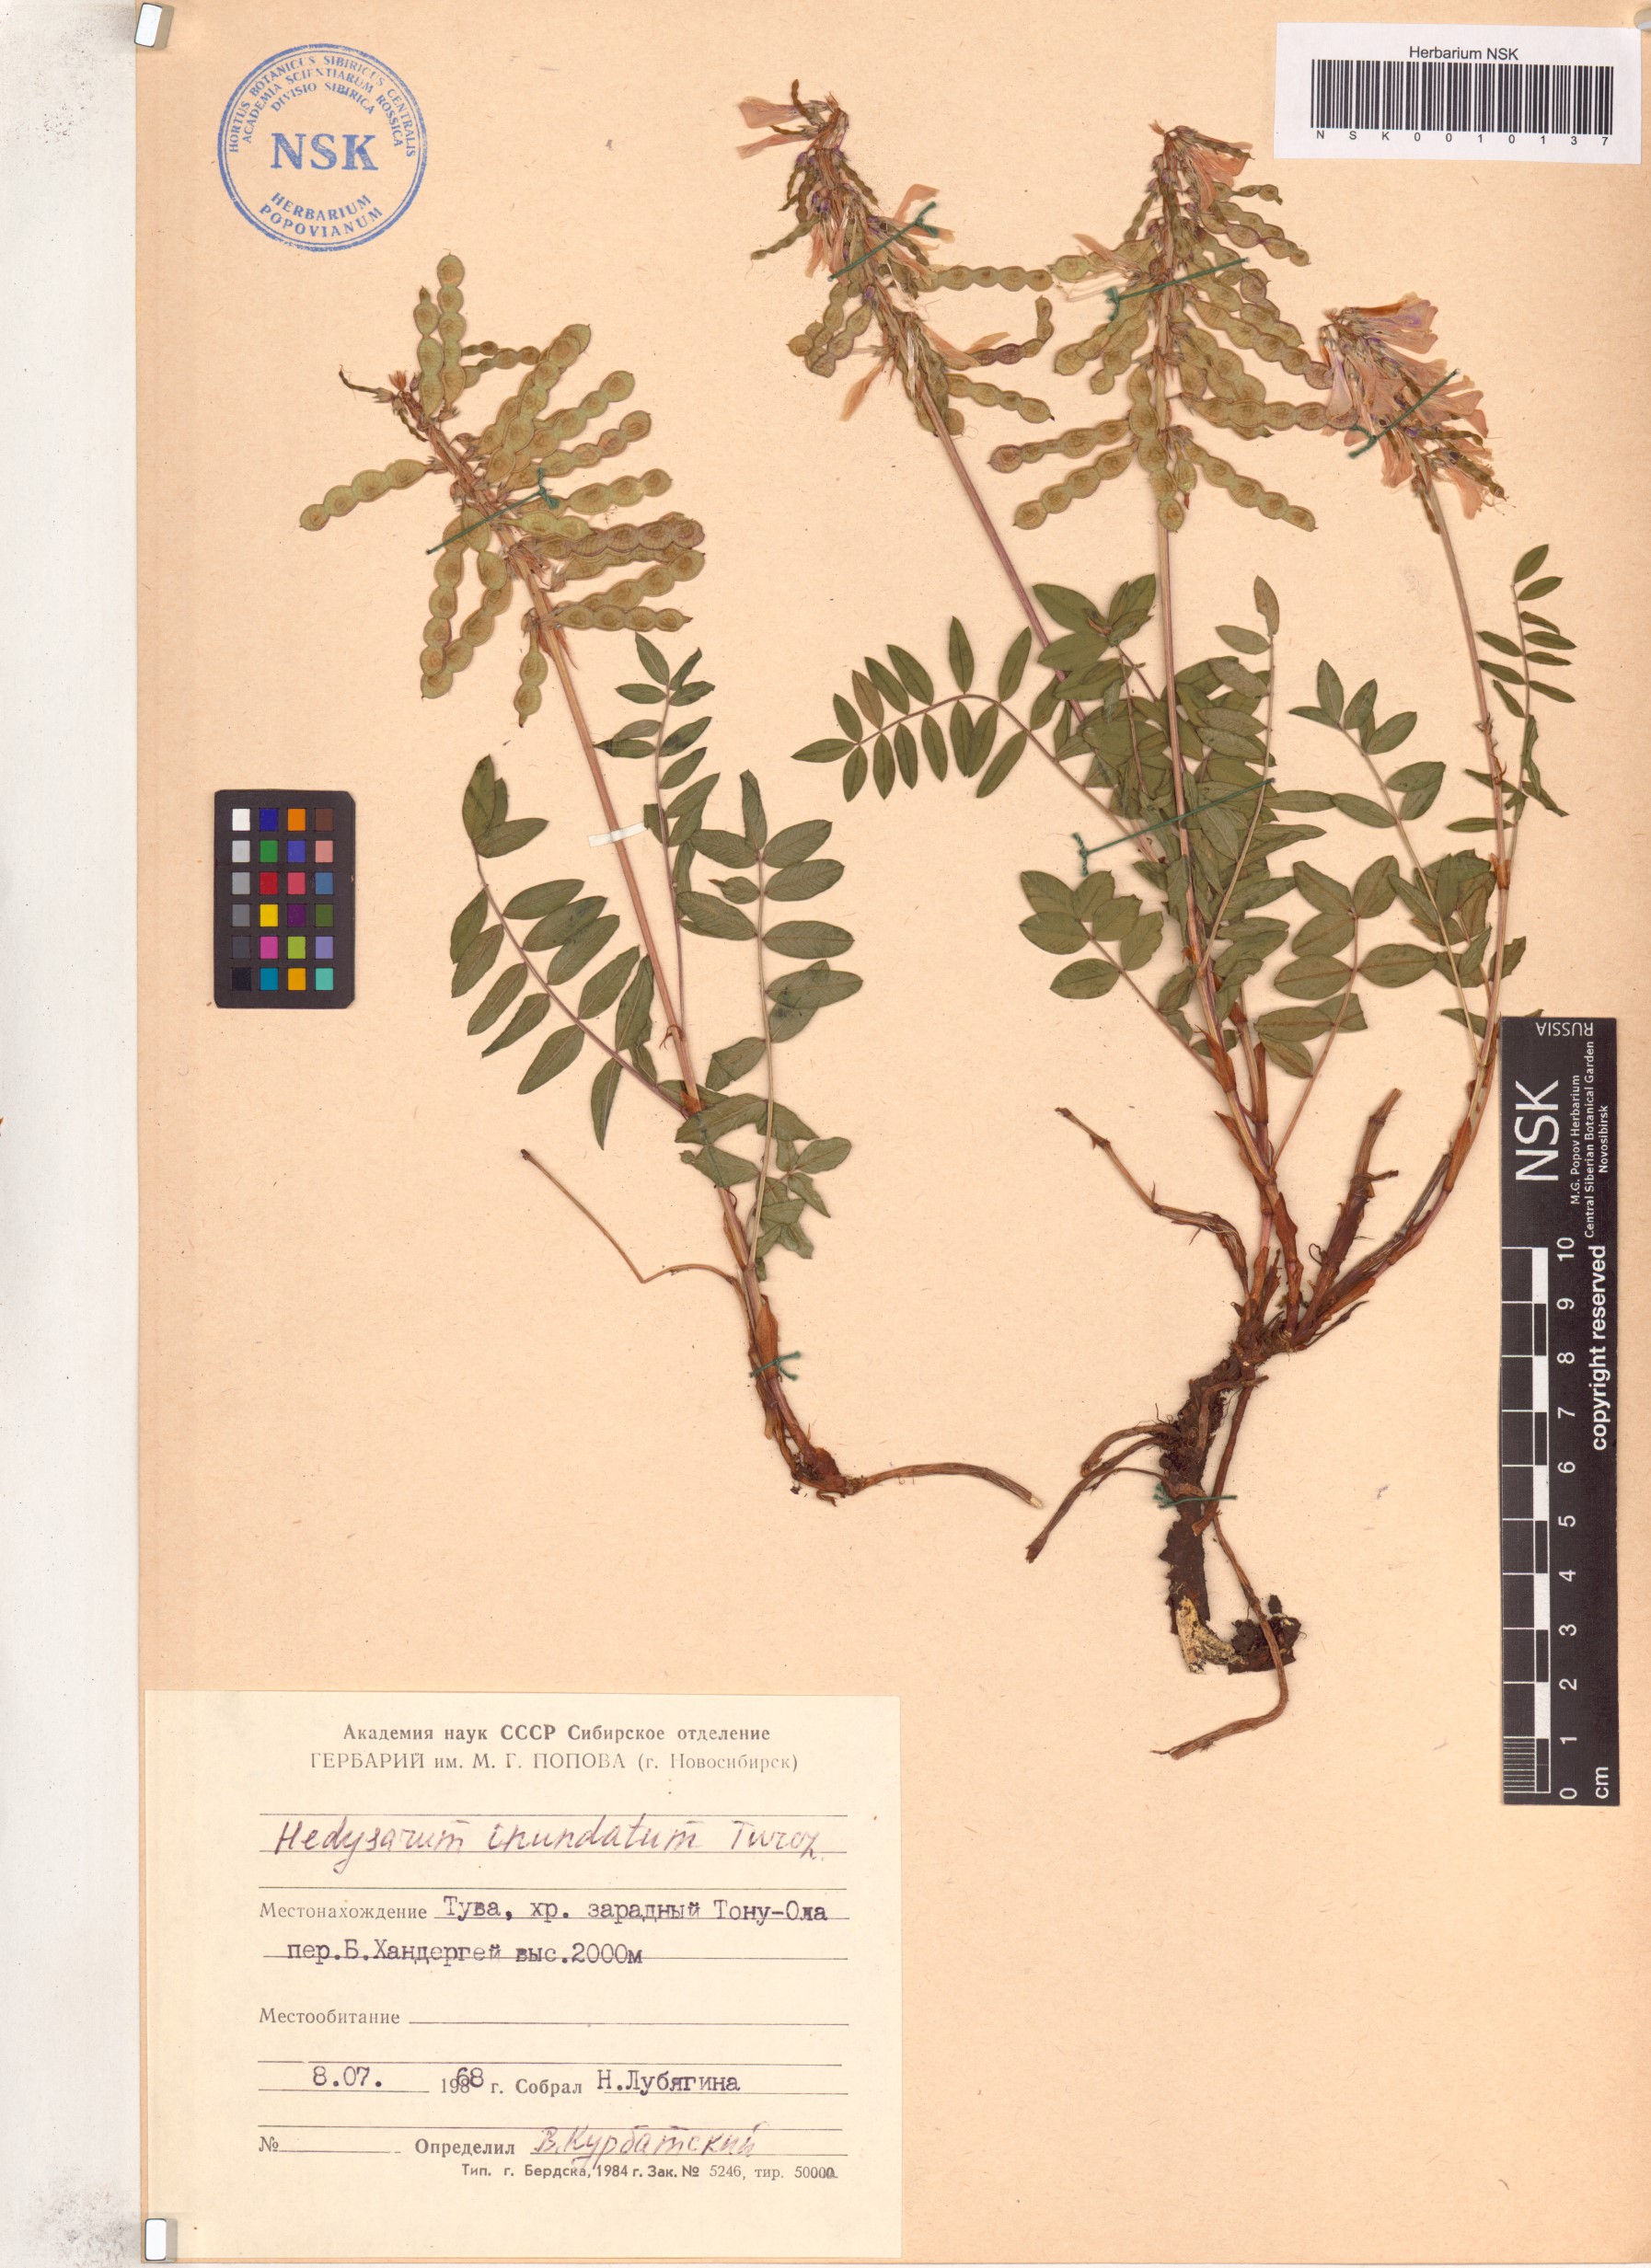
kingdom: Plantae
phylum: Tracheophyta
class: Magnoliopsida
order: Fabales
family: Fabaceae
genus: Hedysarum
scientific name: Hedysarum inundatum
